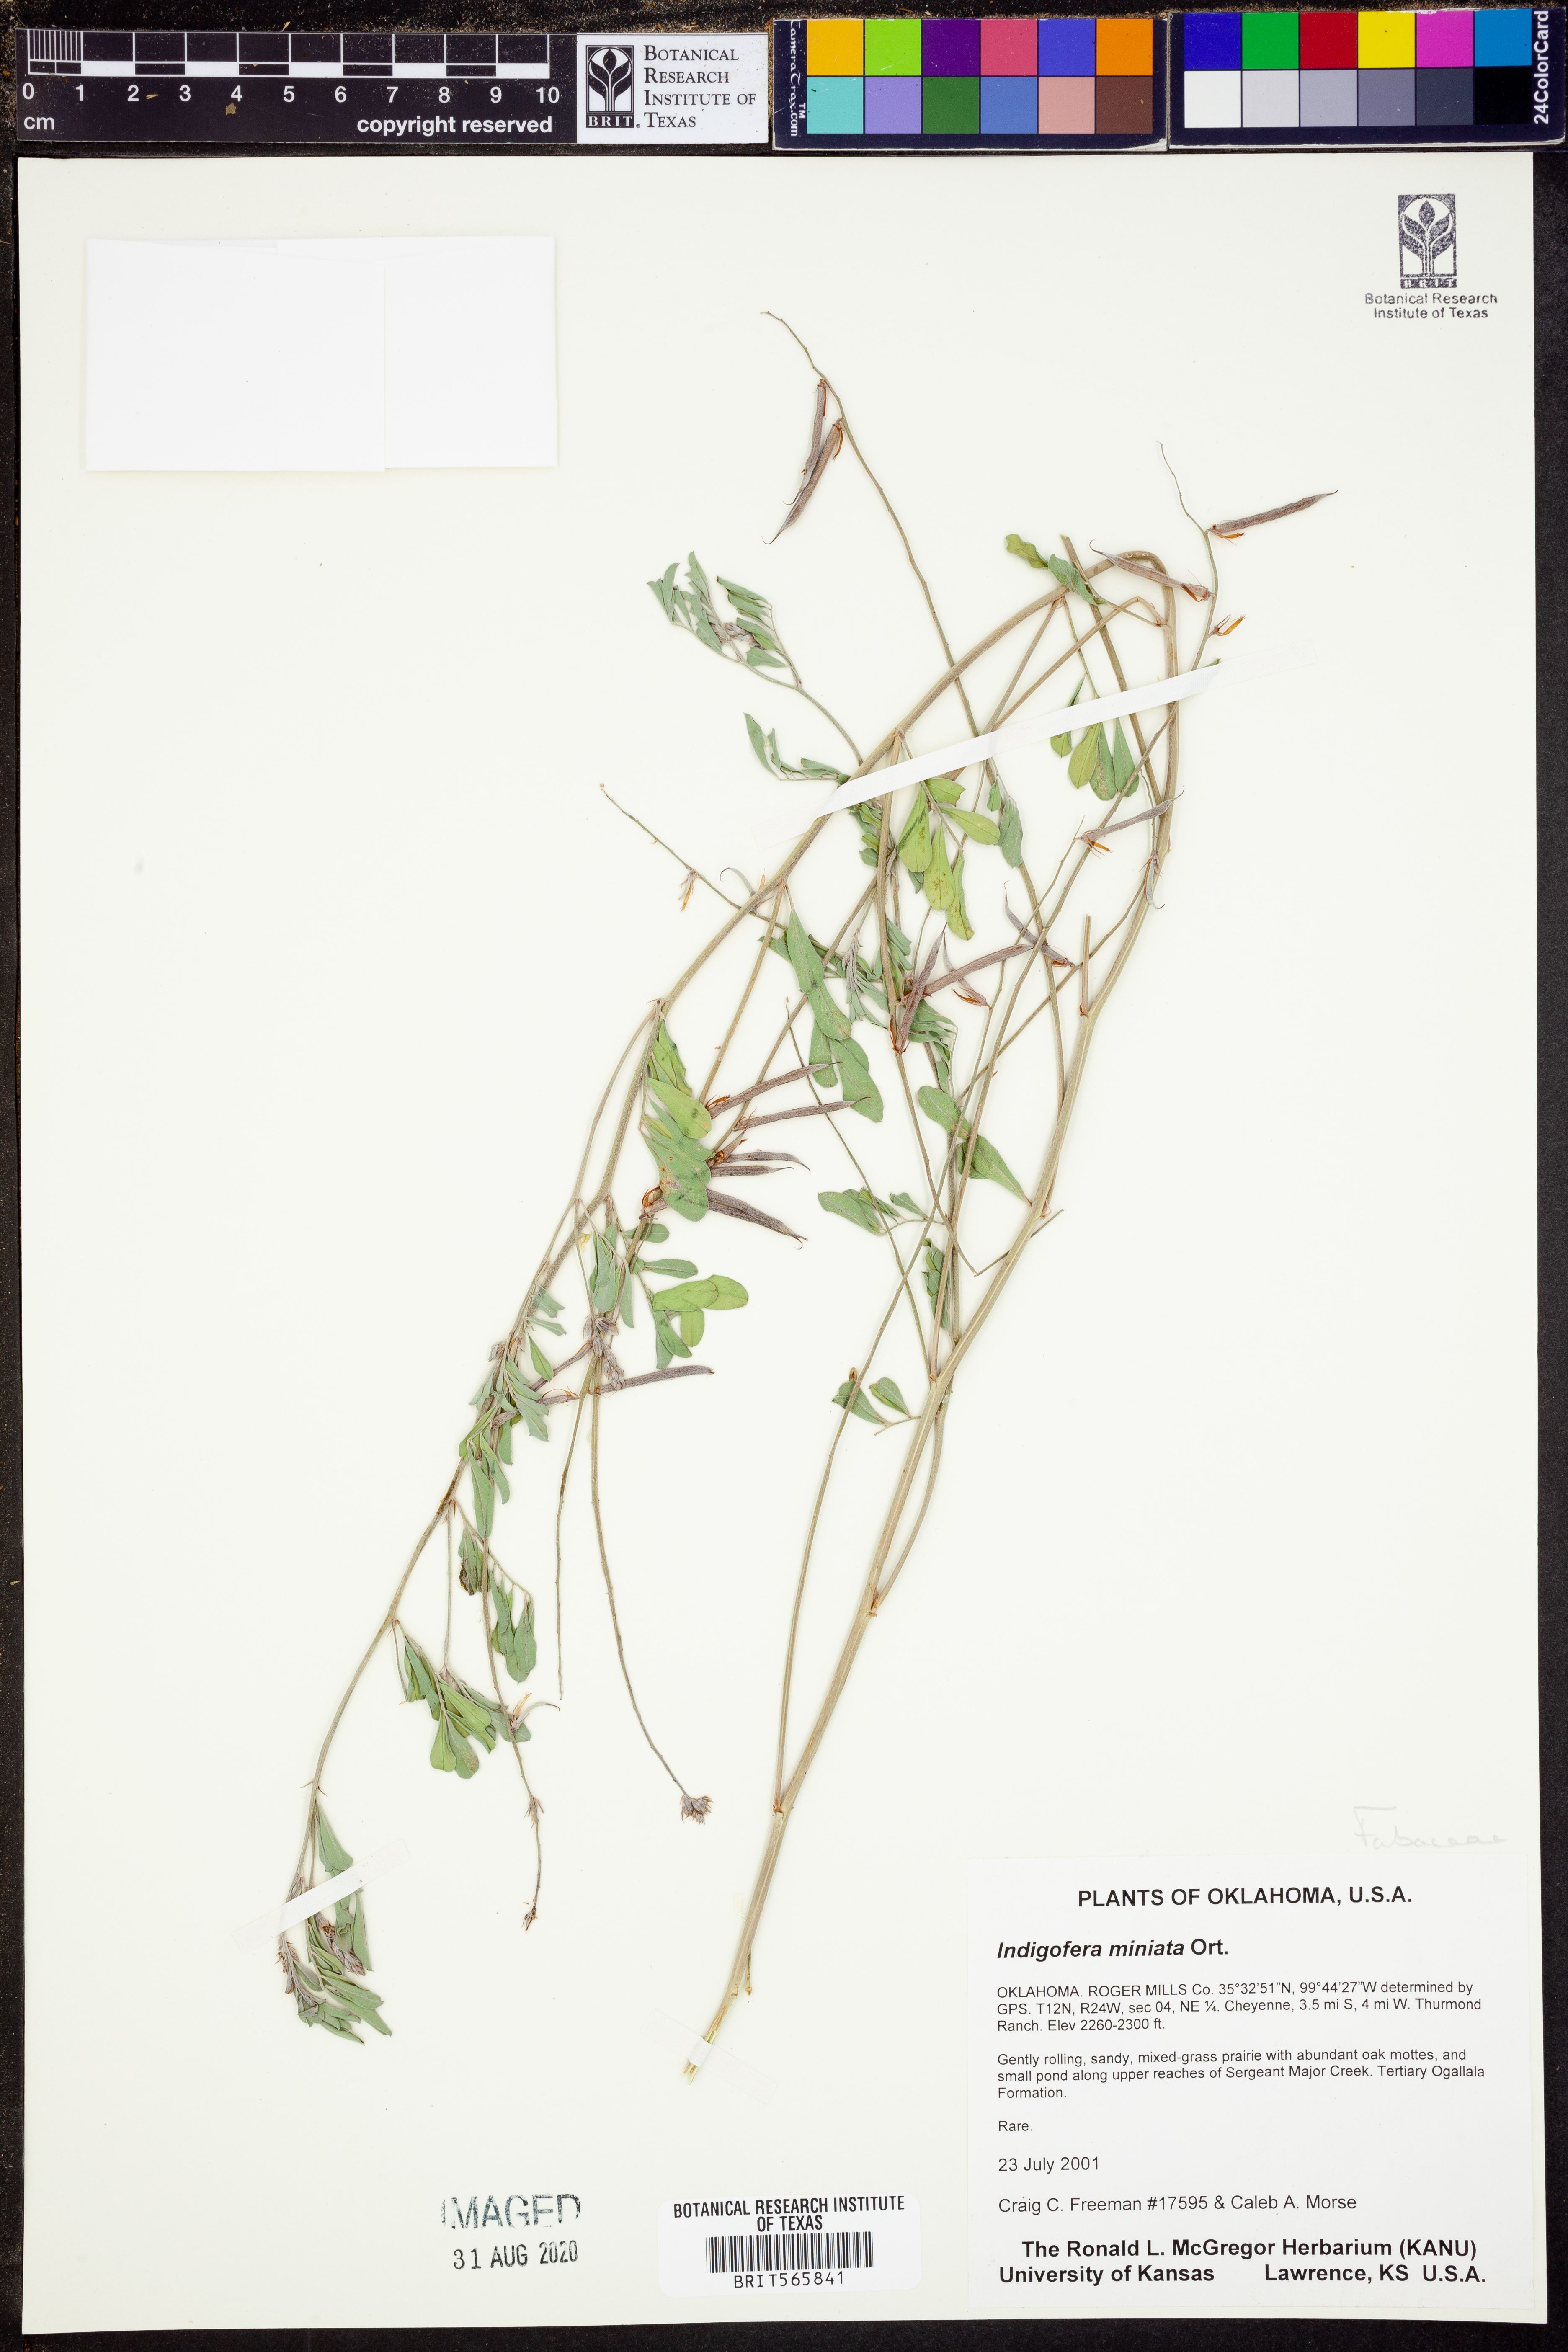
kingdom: Plantae
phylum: Tracheophyta
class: Magnoliopsida
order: Fabales
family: Fabaceae
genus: Indigofera
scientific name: Indigofera miniata
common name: Coast indigo
